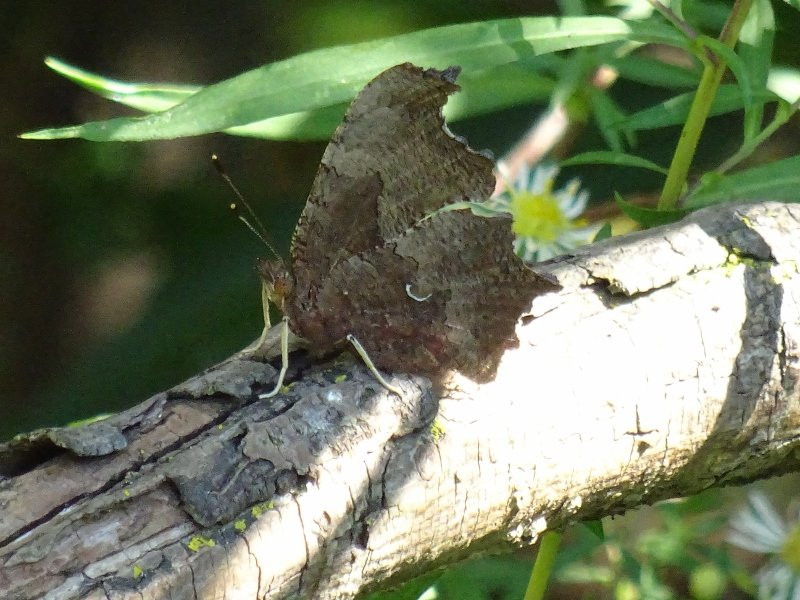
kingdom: Animalia
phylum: Arthropoda
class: Insecta
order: Lepidoptera
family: Nymphalidae
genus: Polygonia
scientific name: Polygonia comma
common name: Eastern Comma
